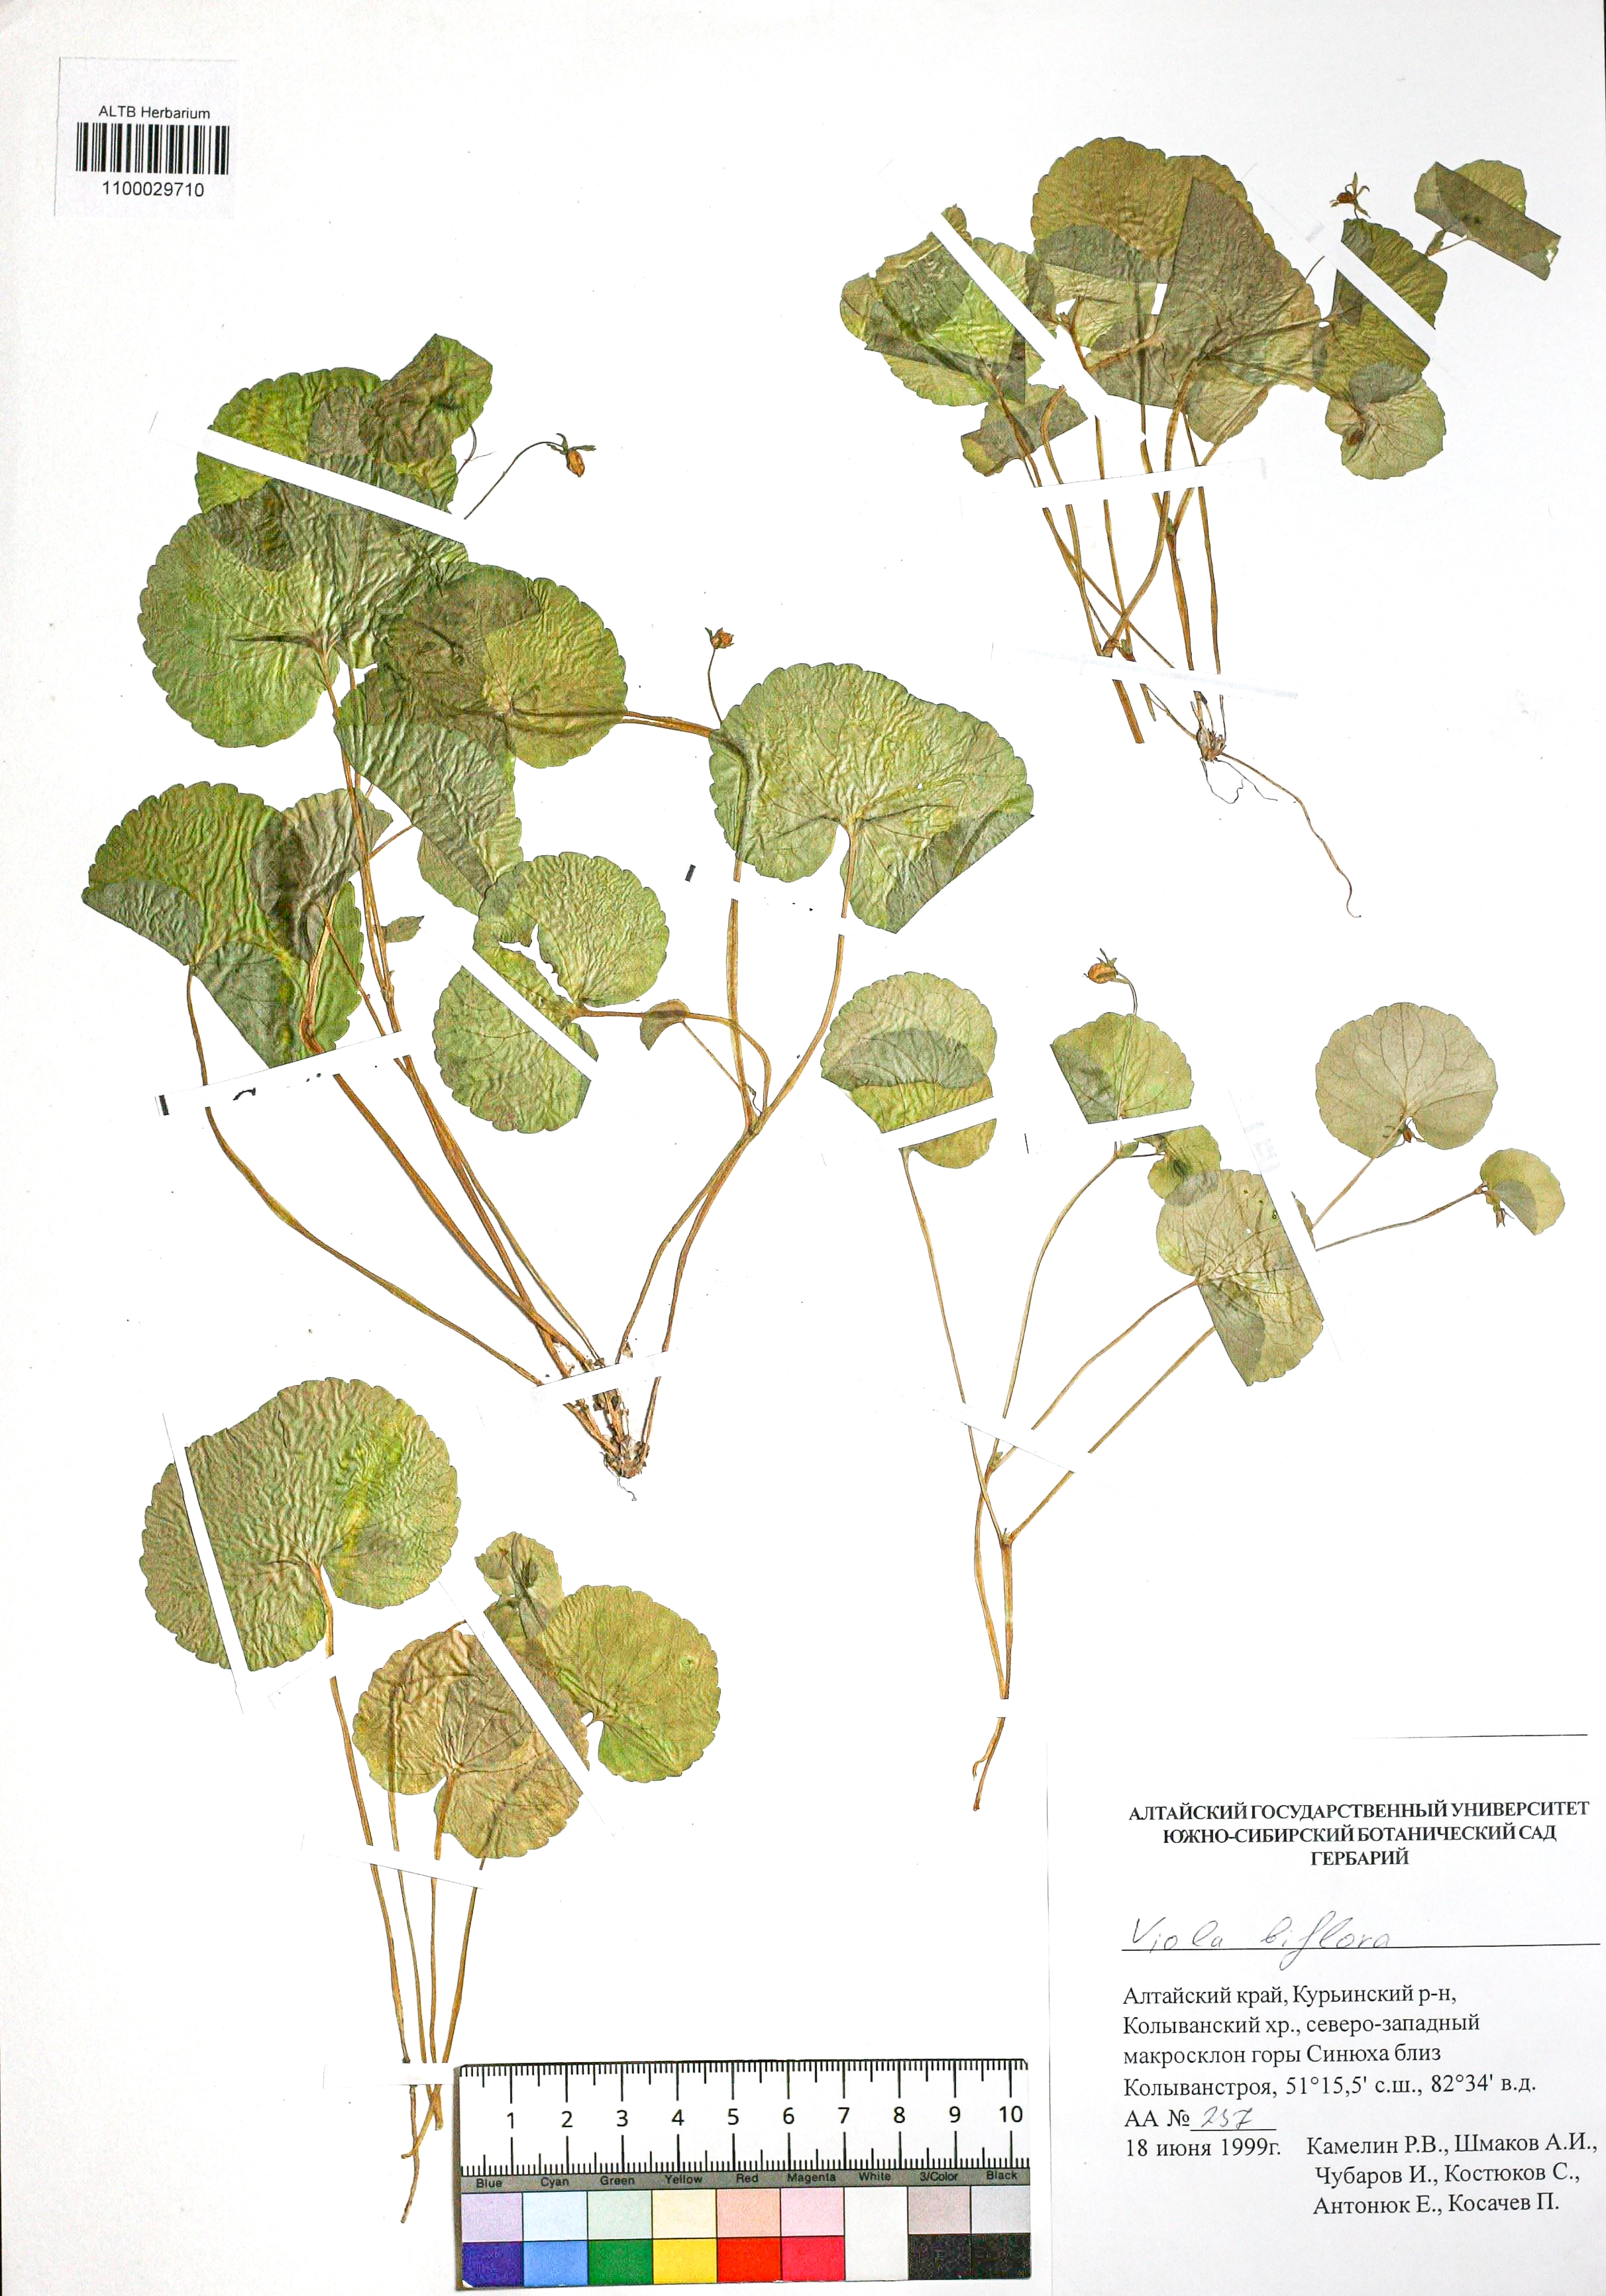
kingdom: Plantae
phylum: Tracheophyta
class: Magnoliopsida
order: Malpighiales
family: Violaceae
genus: Viola
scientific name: Viola biflora
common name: Alpine yellow violet
